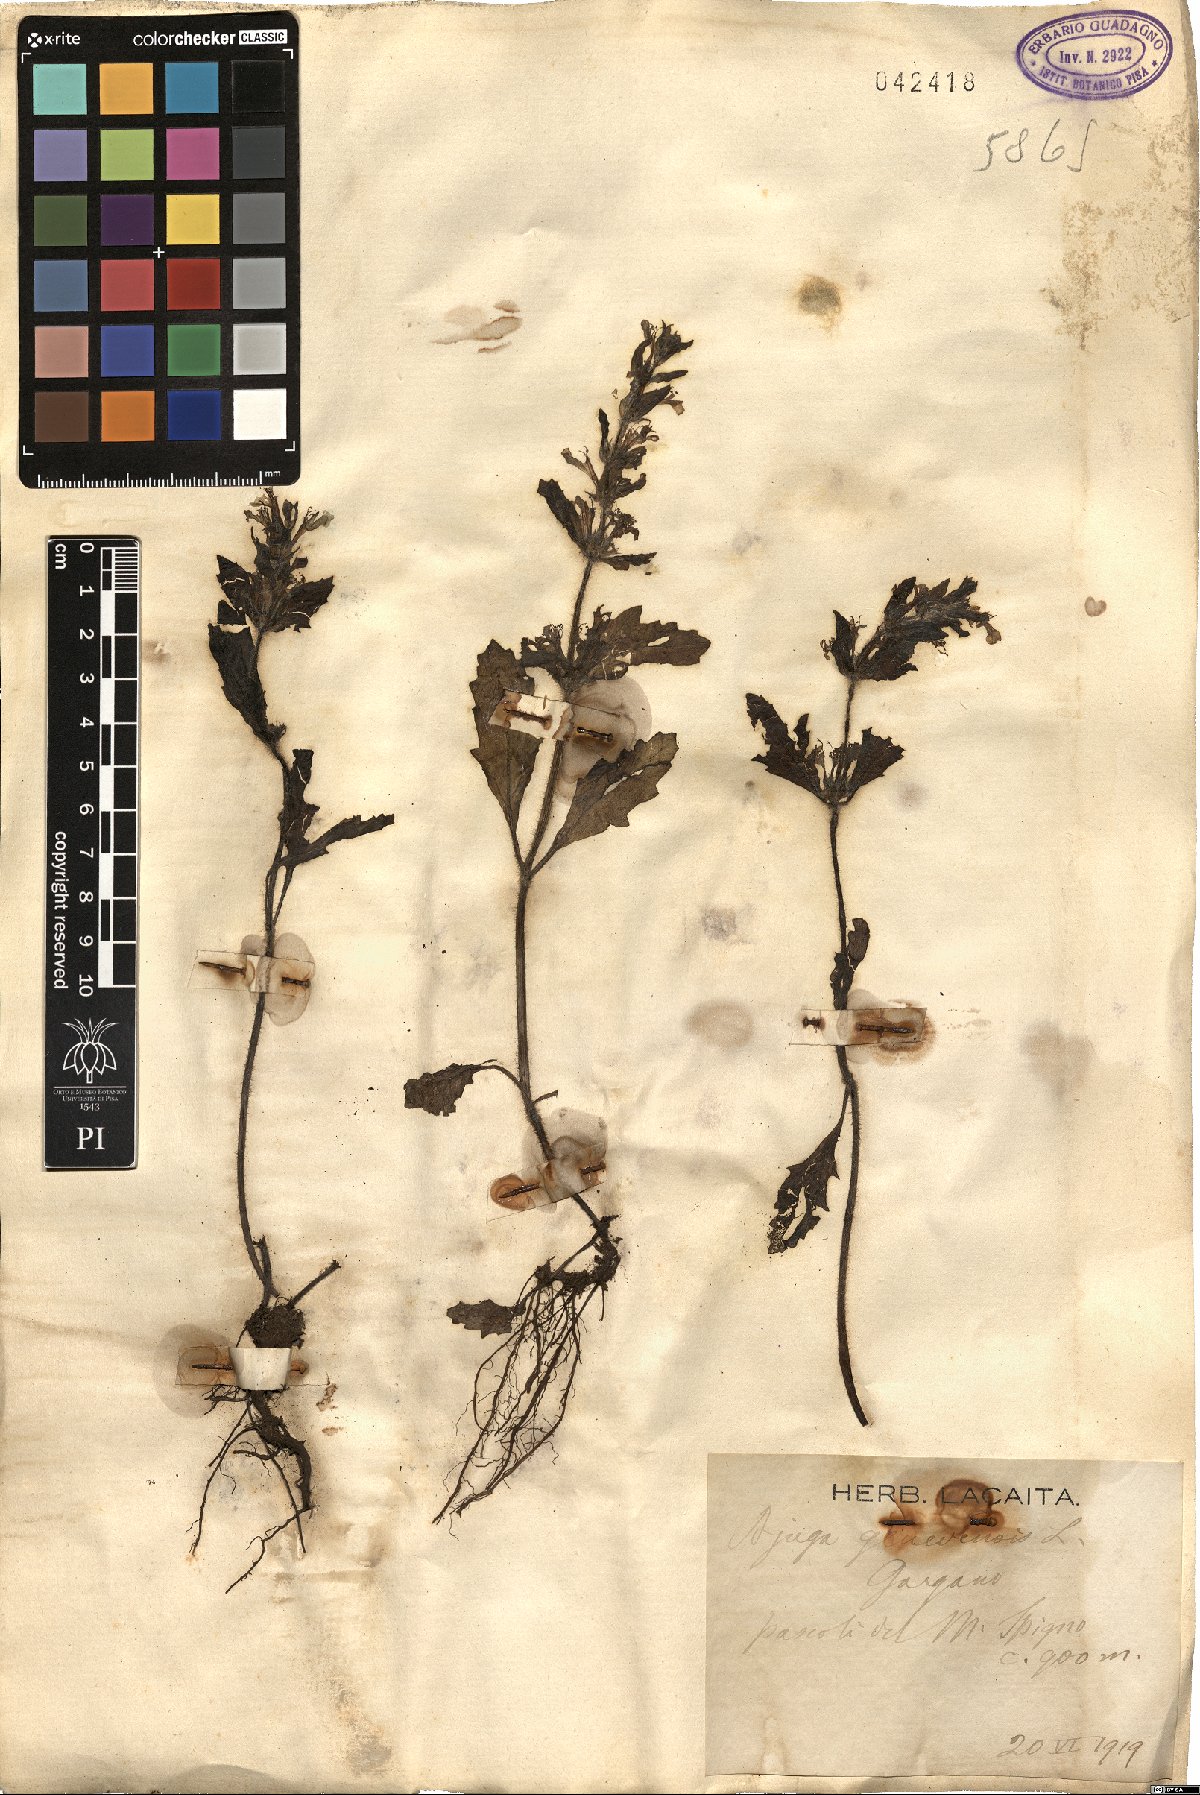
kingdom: Plantae
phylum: Tracheophyta
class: Magnoliopsida
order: Lamiales
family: Lamiaceae
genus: Ajuga
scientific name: Ajuga genevensis
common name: Blue bugle
